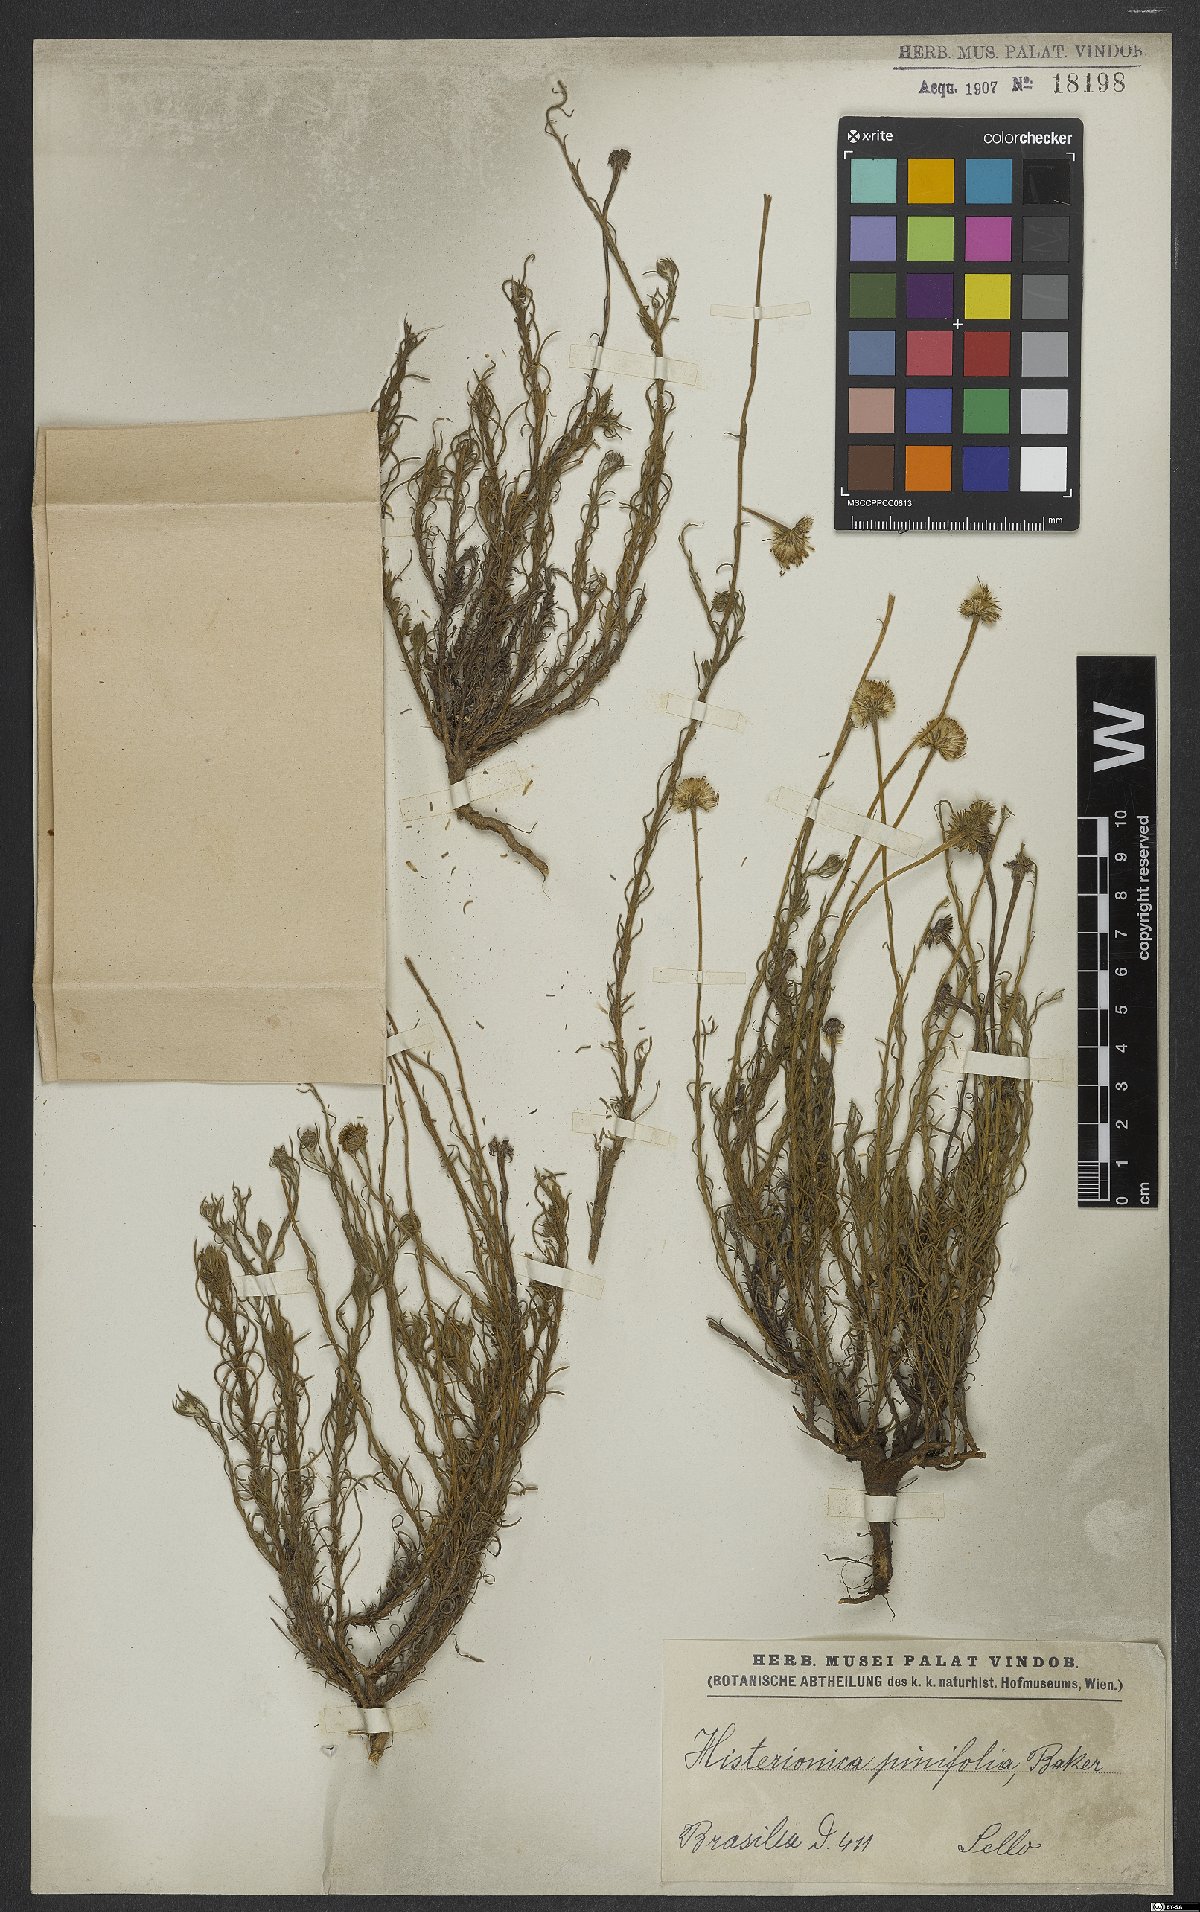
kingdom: Plantae
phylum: Tracheophyta
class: Magnoliopsida
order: Asterales
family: Asteraceae
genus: Neja
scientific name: Neja pinifolia
